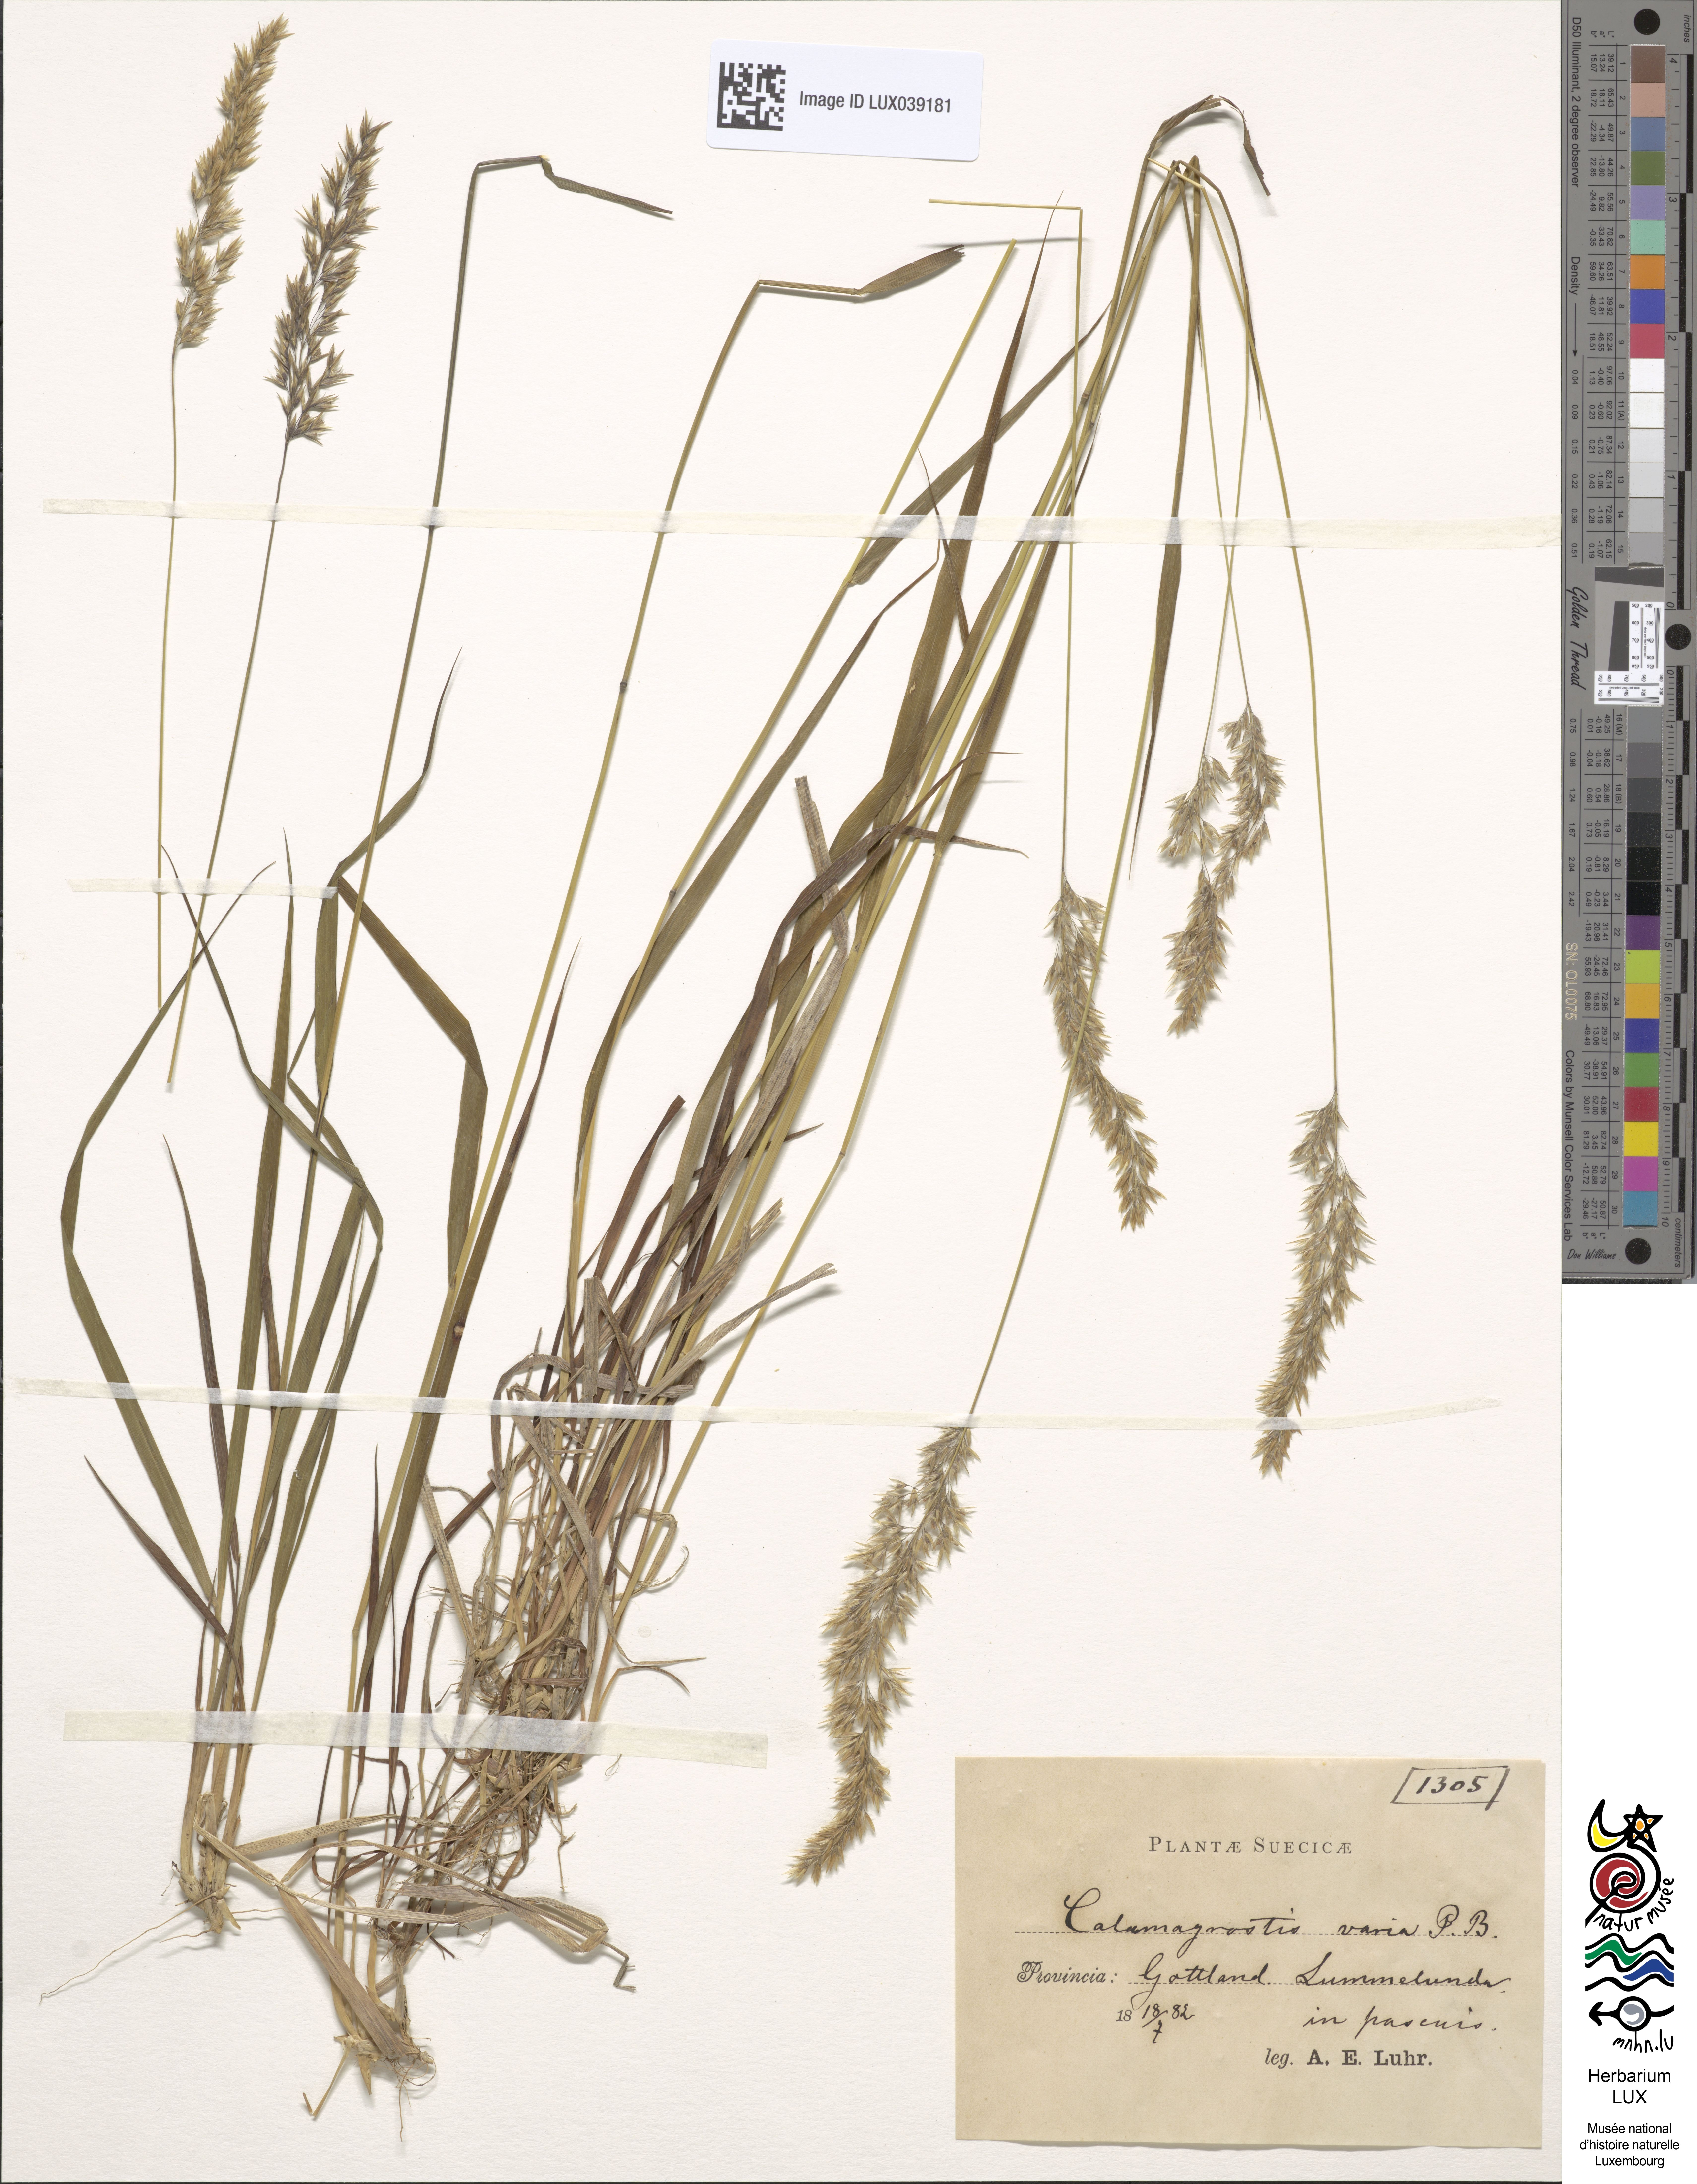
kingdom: Plantae
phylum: Tracheophyta
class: Liliopsida
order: Poales
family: Poaceae
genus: Calamagrostis
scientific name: Calamagrostis varia
